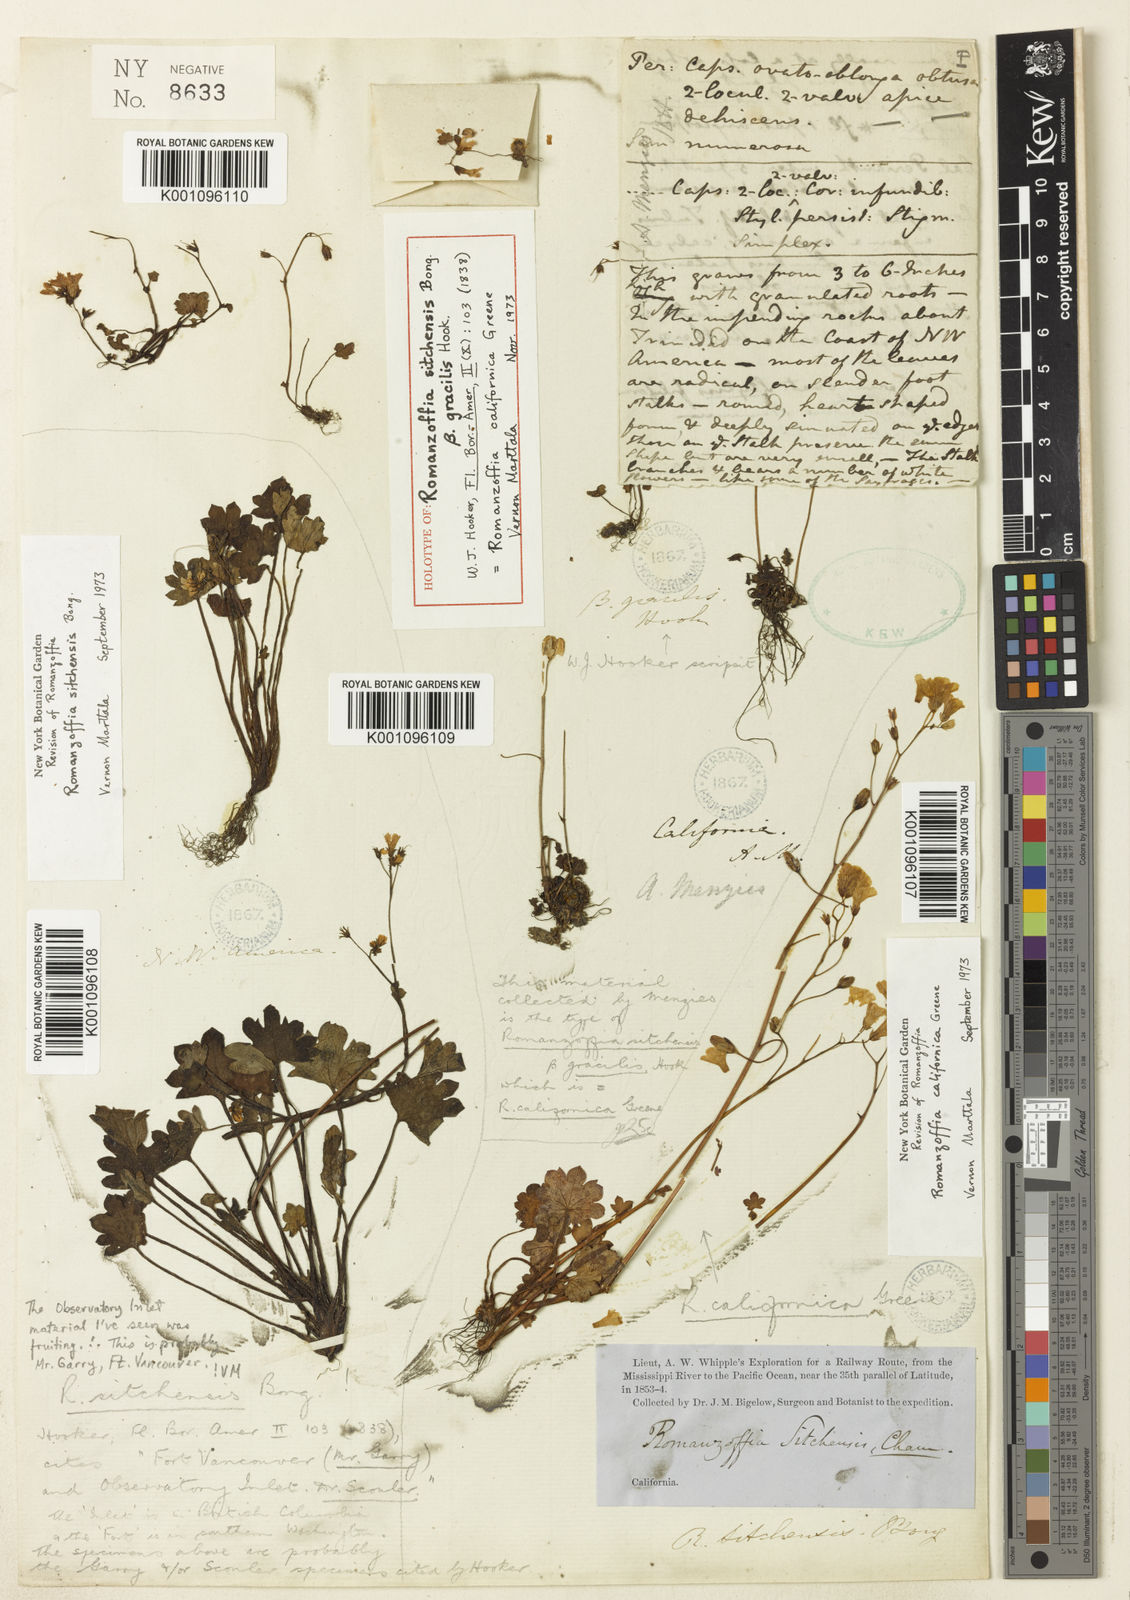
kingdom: Plantae
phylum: Tracheophyta
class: Magnoliopsida
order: Boraginales
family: Hydrophyllaceae
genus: Romanzoffia
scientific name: Romanzoffia sitchensis
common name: Sitka mistmaid
